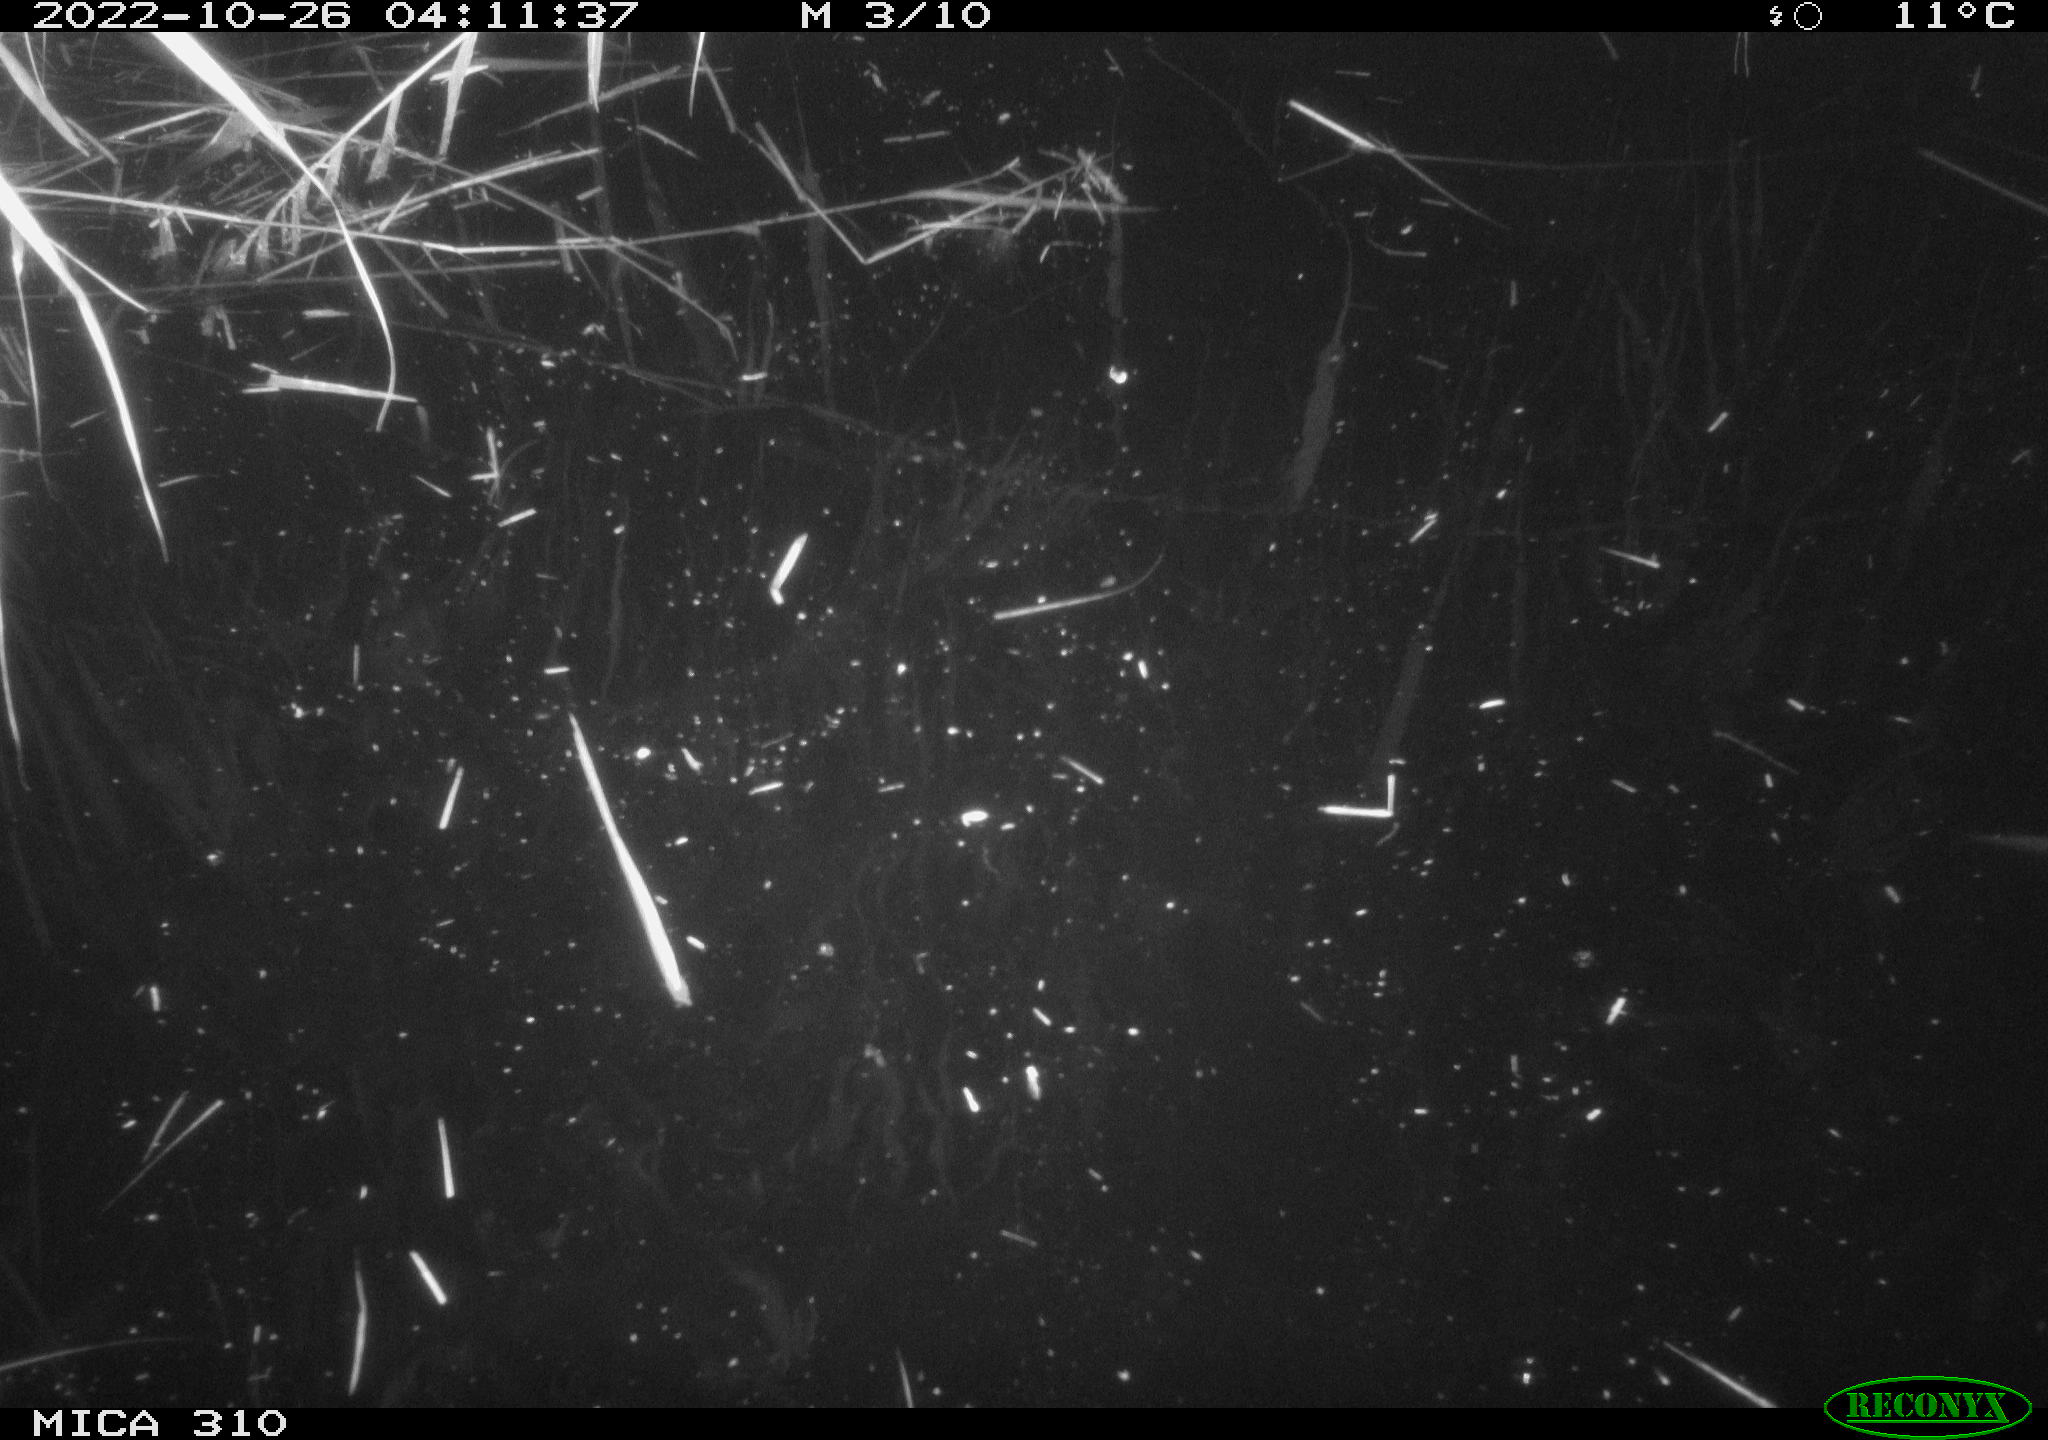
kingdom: Animalia
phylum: Chordata
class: Aves
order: Anseriformes
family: Anatidae
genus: Anas
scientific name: Anas
